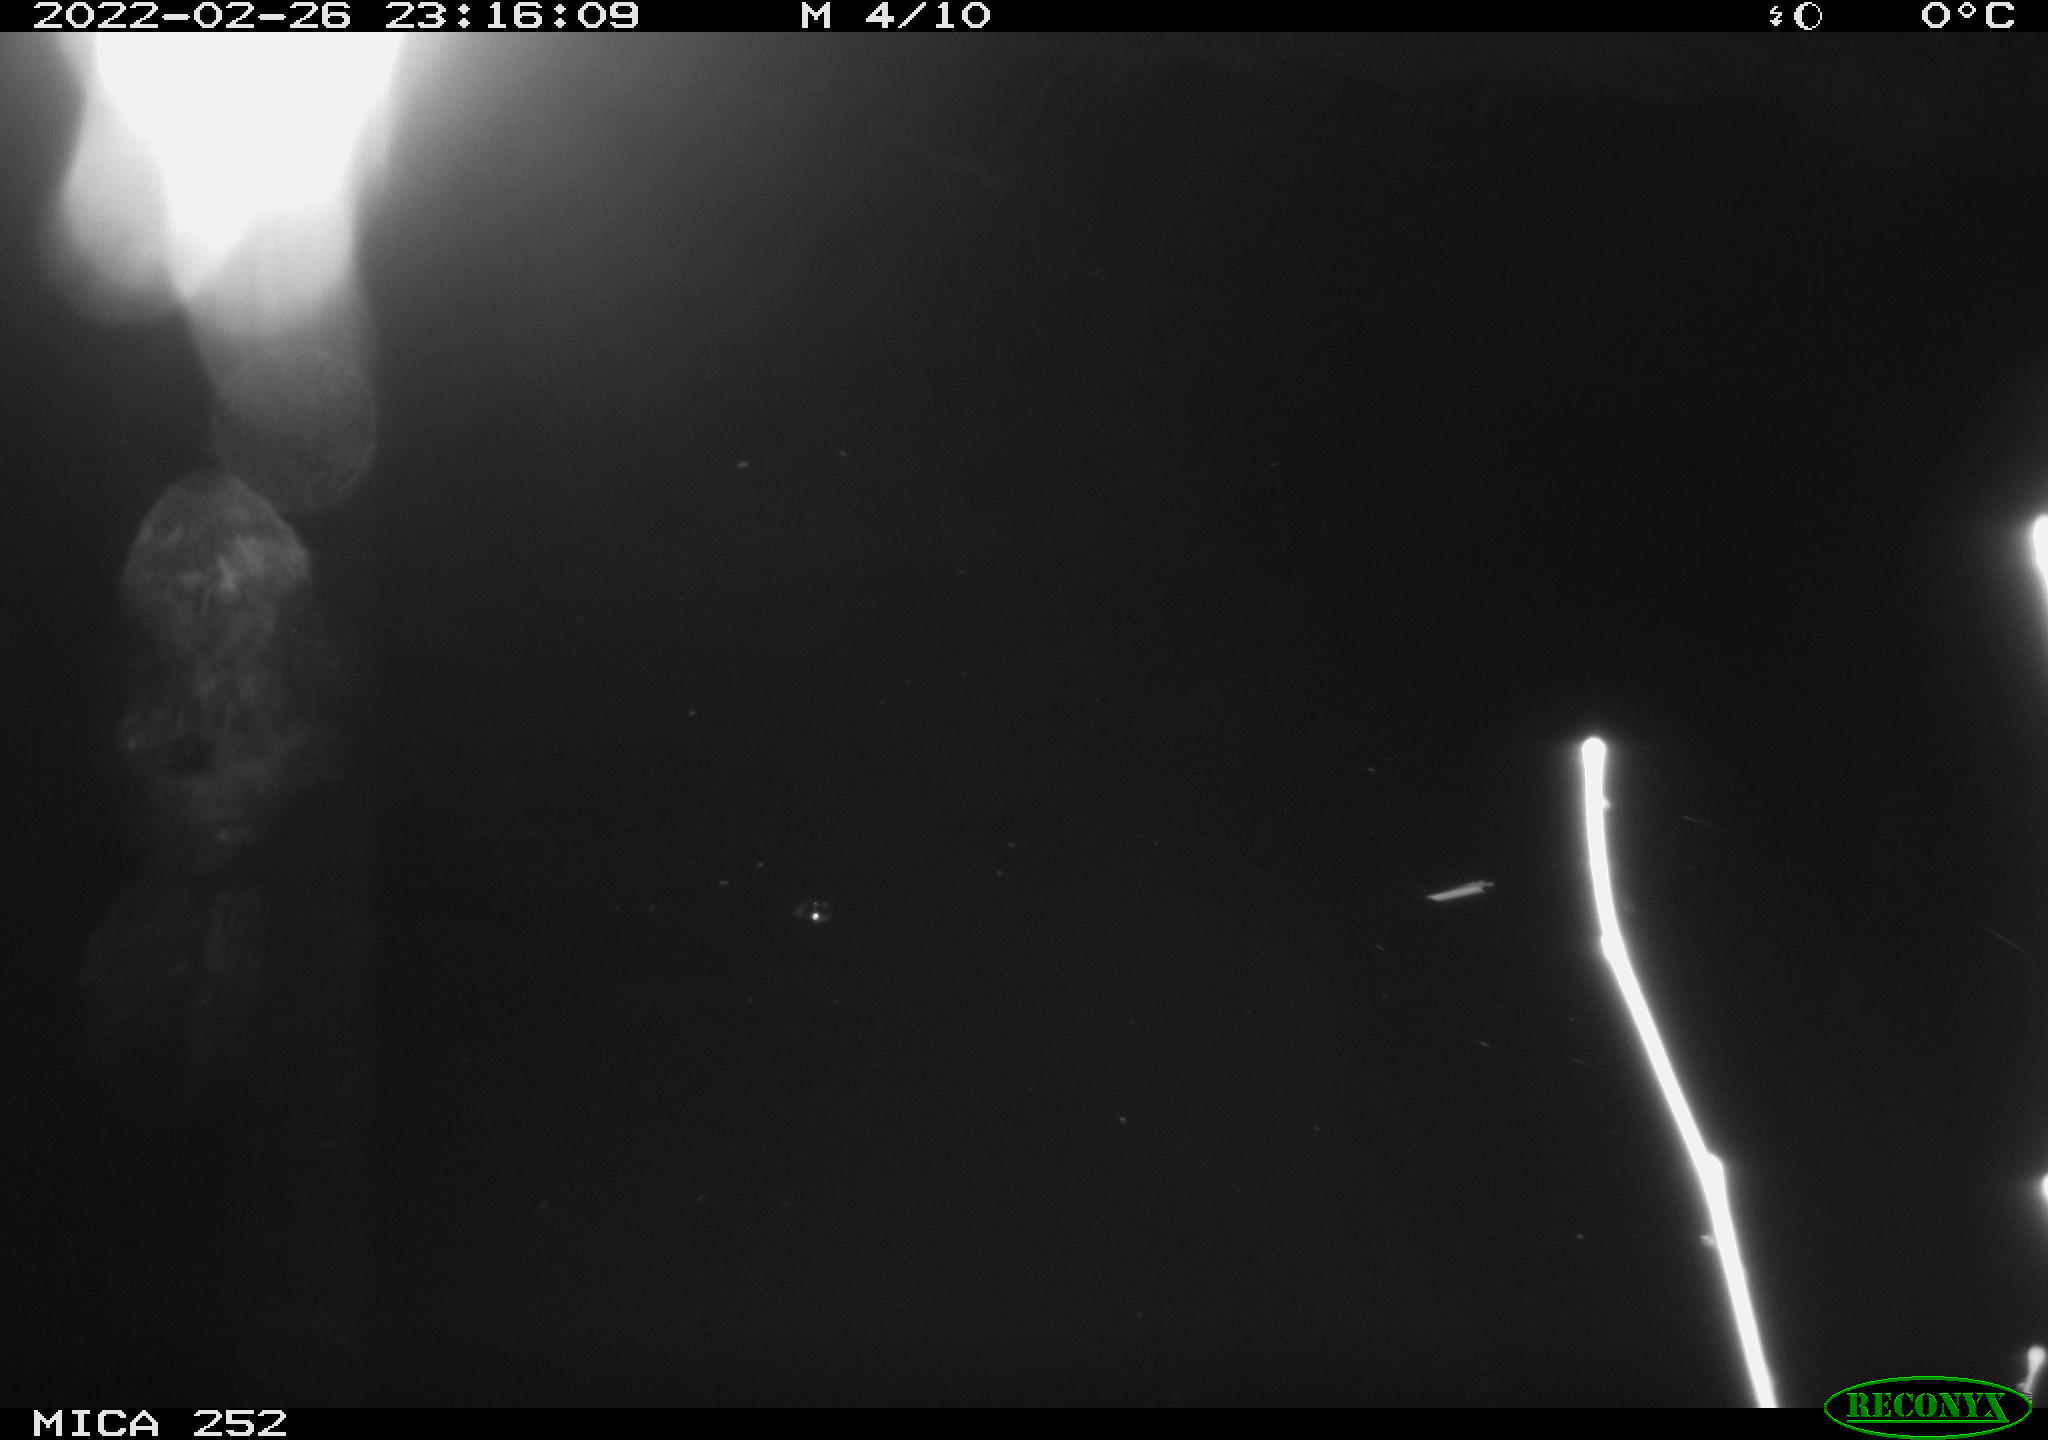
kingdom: Animalia
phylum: Chordata
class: Mammalia
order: Rodentia
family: Castoridae
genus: Castor
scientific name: Castor fiber
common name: Eurasian beaver
